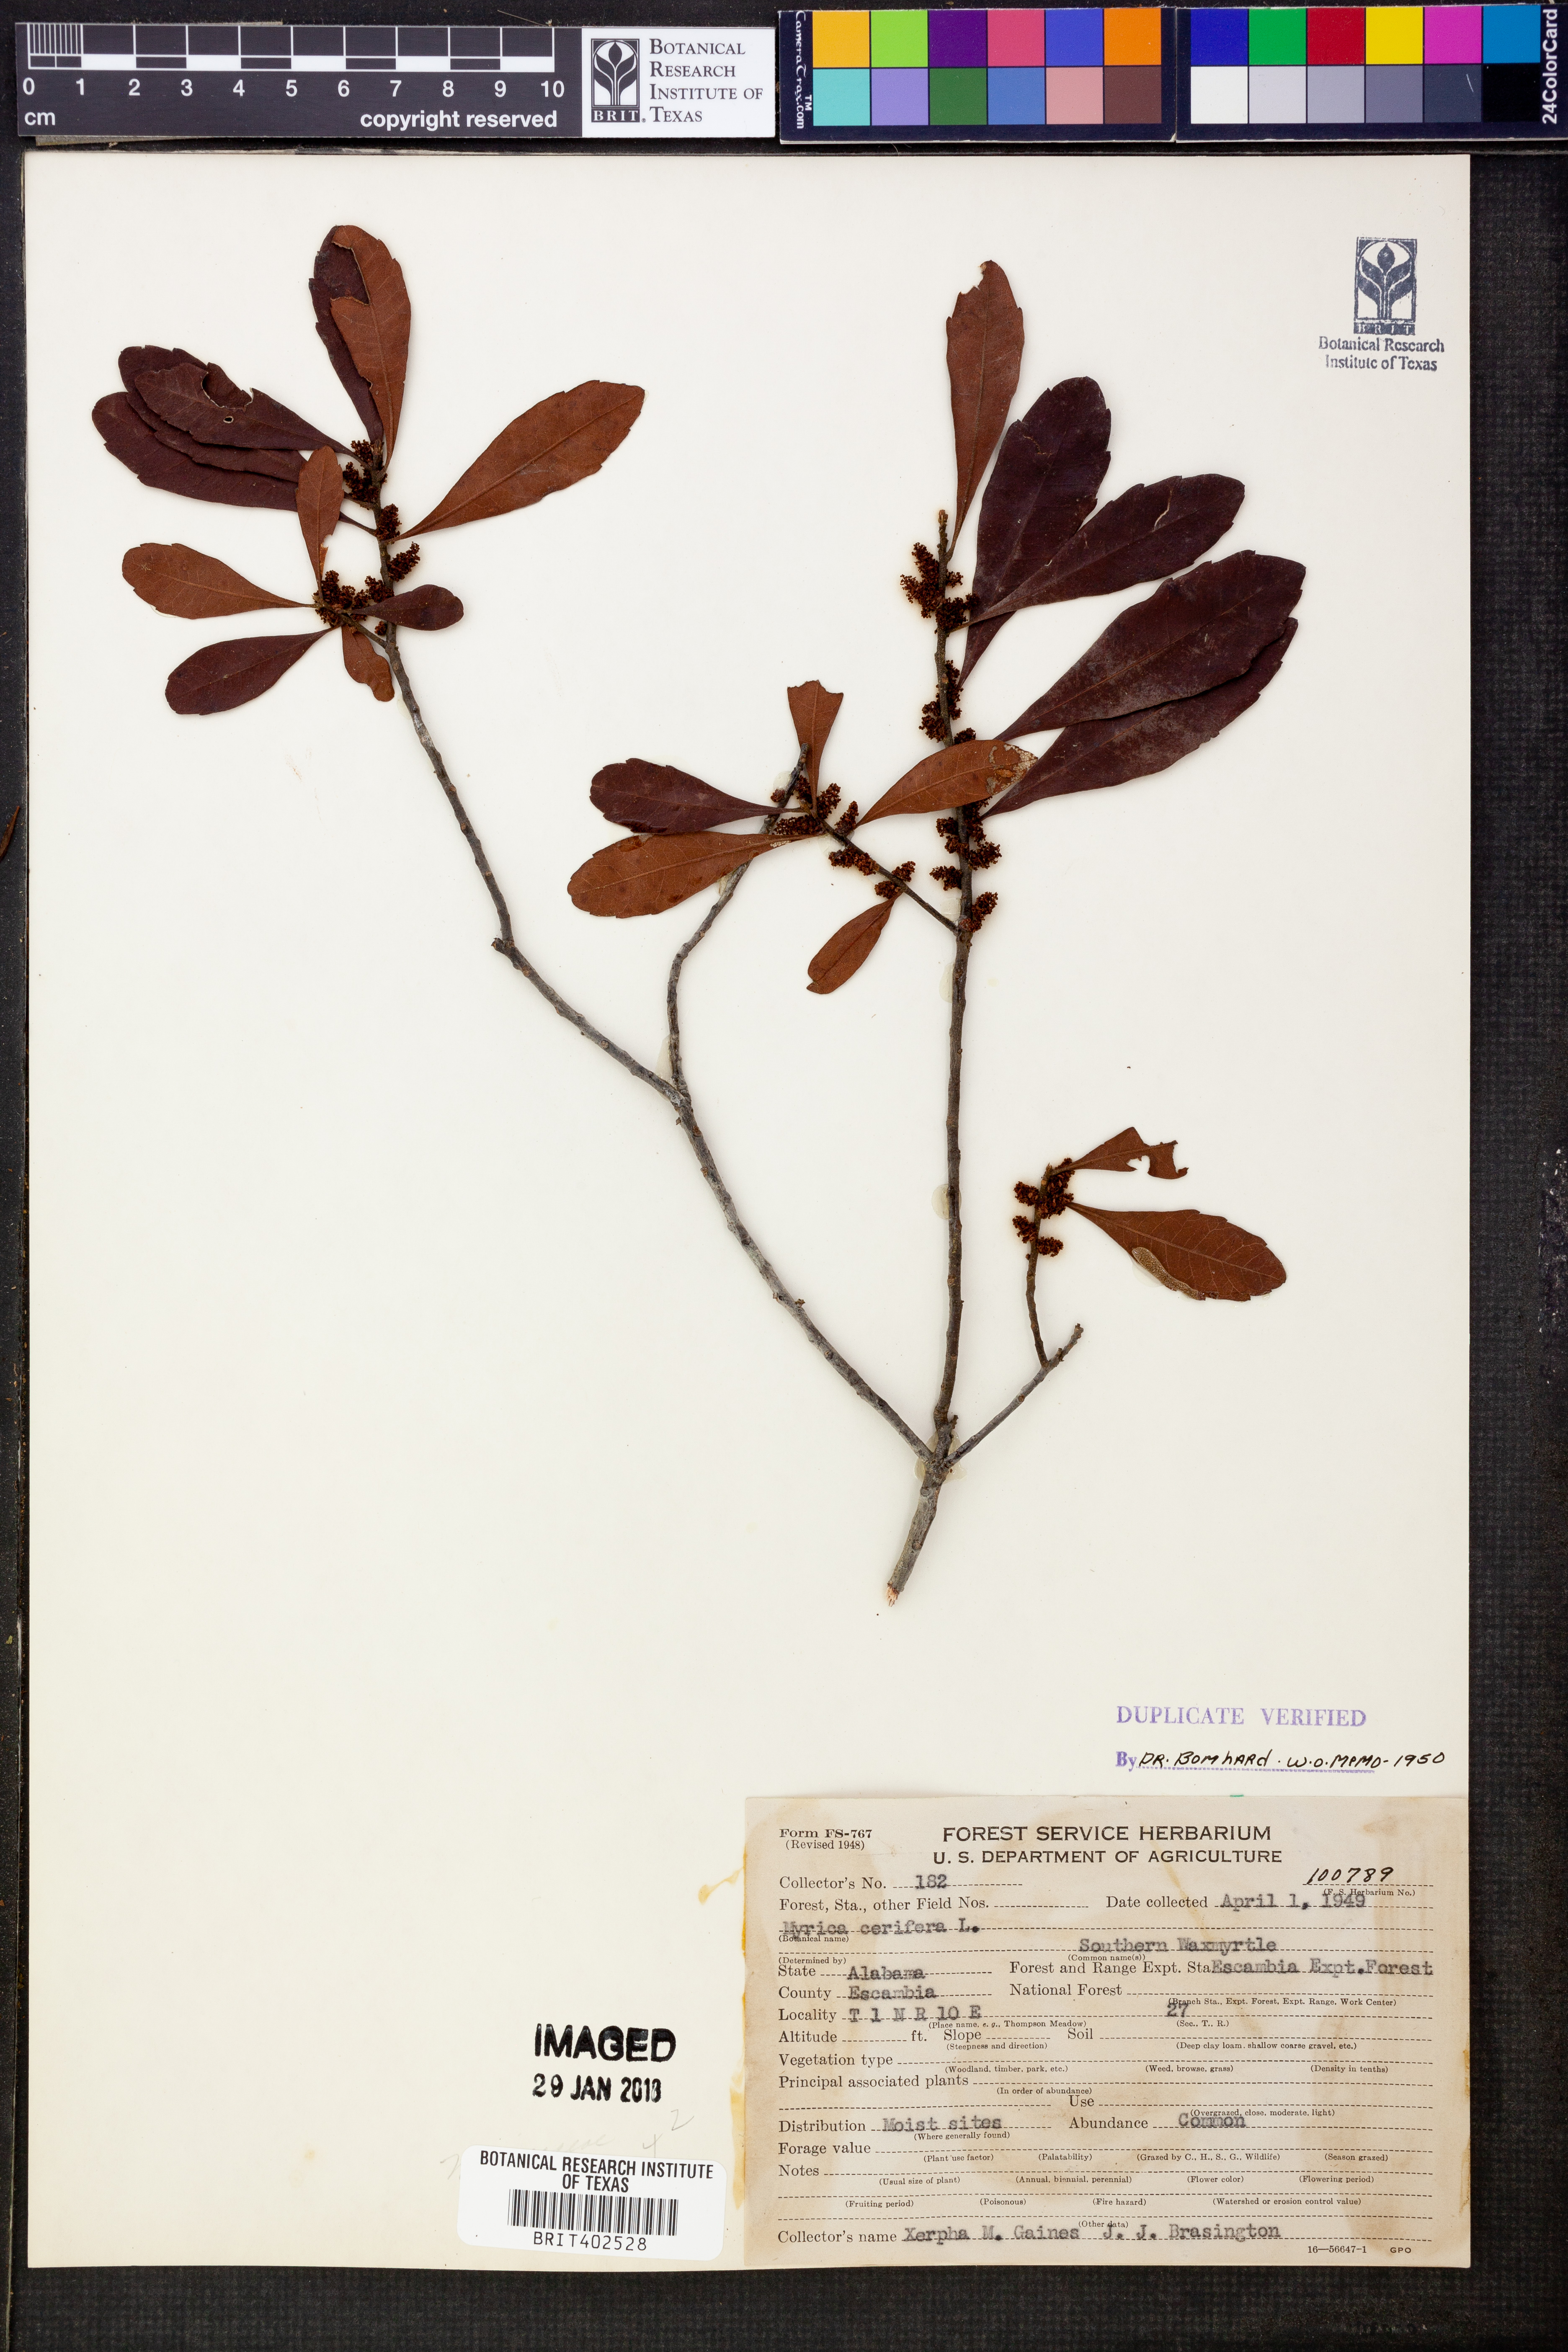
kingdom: Plantae
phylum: Tracheophyta
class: Magnoliopsida
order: Fagales
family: Myricaceae
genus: Morella
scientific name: Morella cerifera
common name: Wax myrtle
